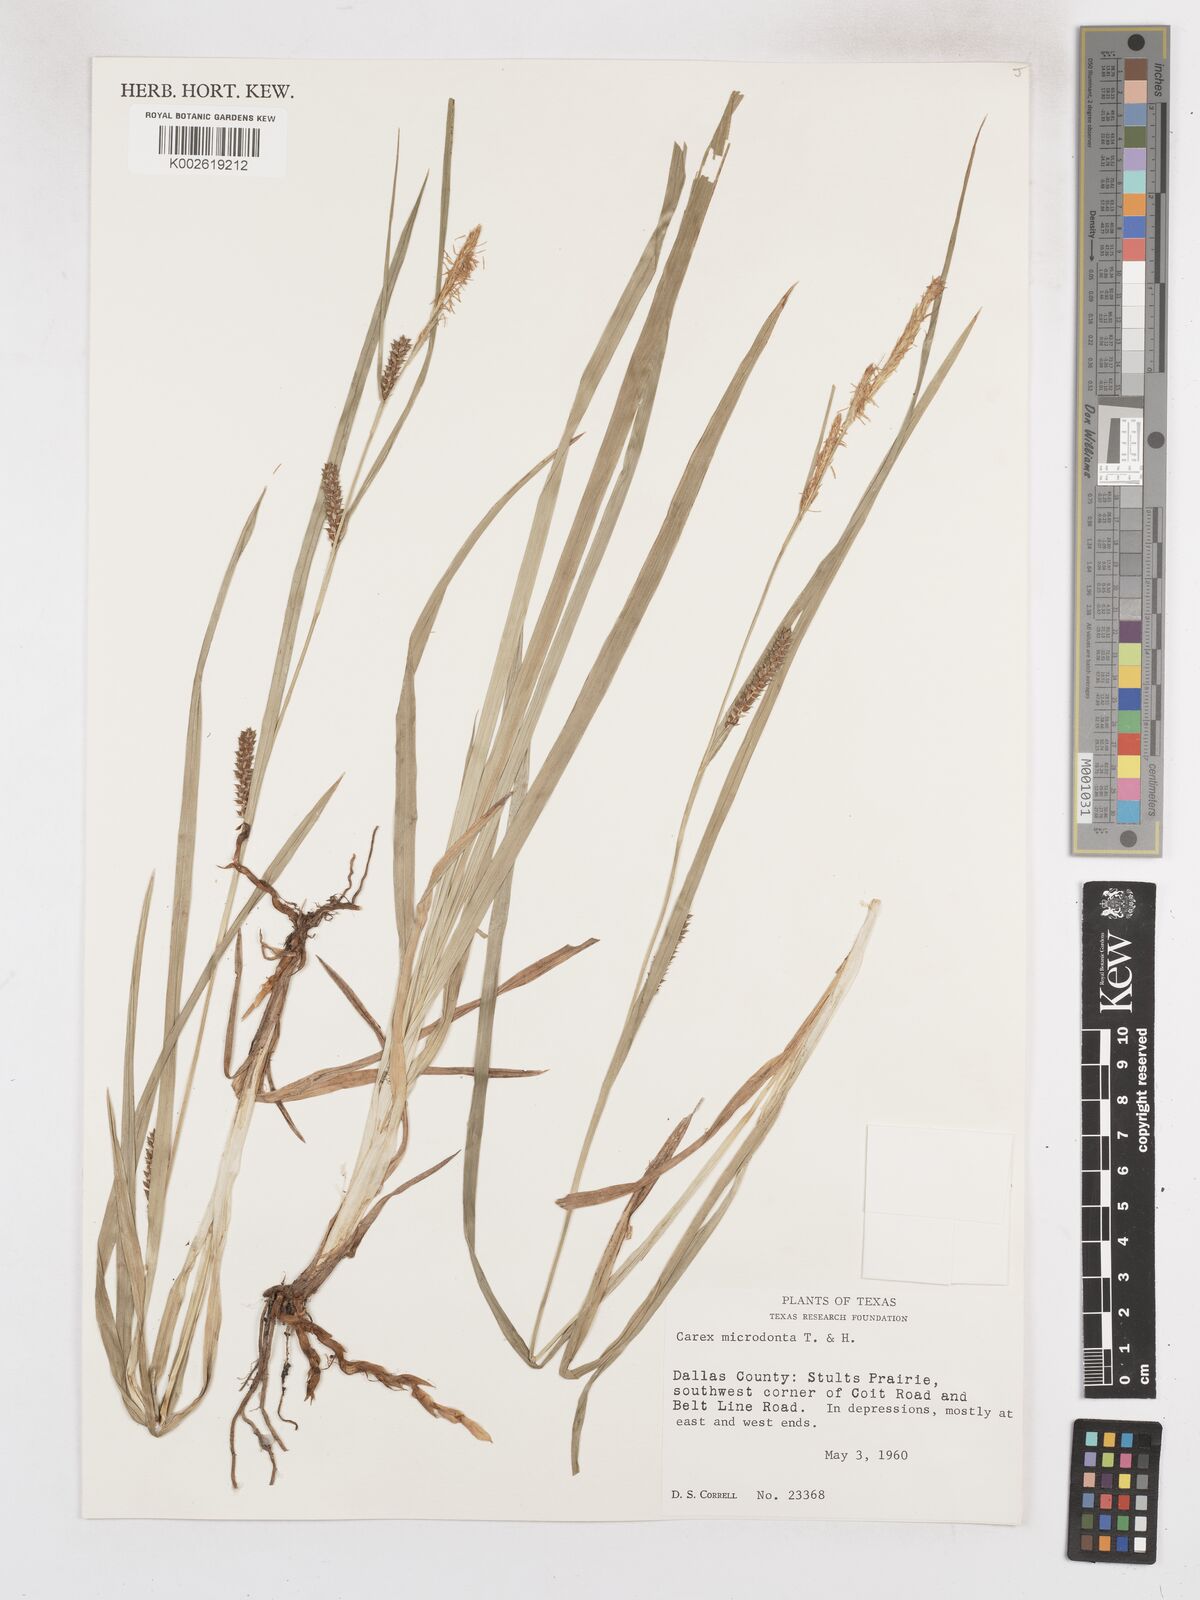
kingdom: Plantae
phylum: Tracheophyta
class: Liliopsida
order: Poales
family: Cyperaceae
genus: Carex
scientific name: Carex microdonta
